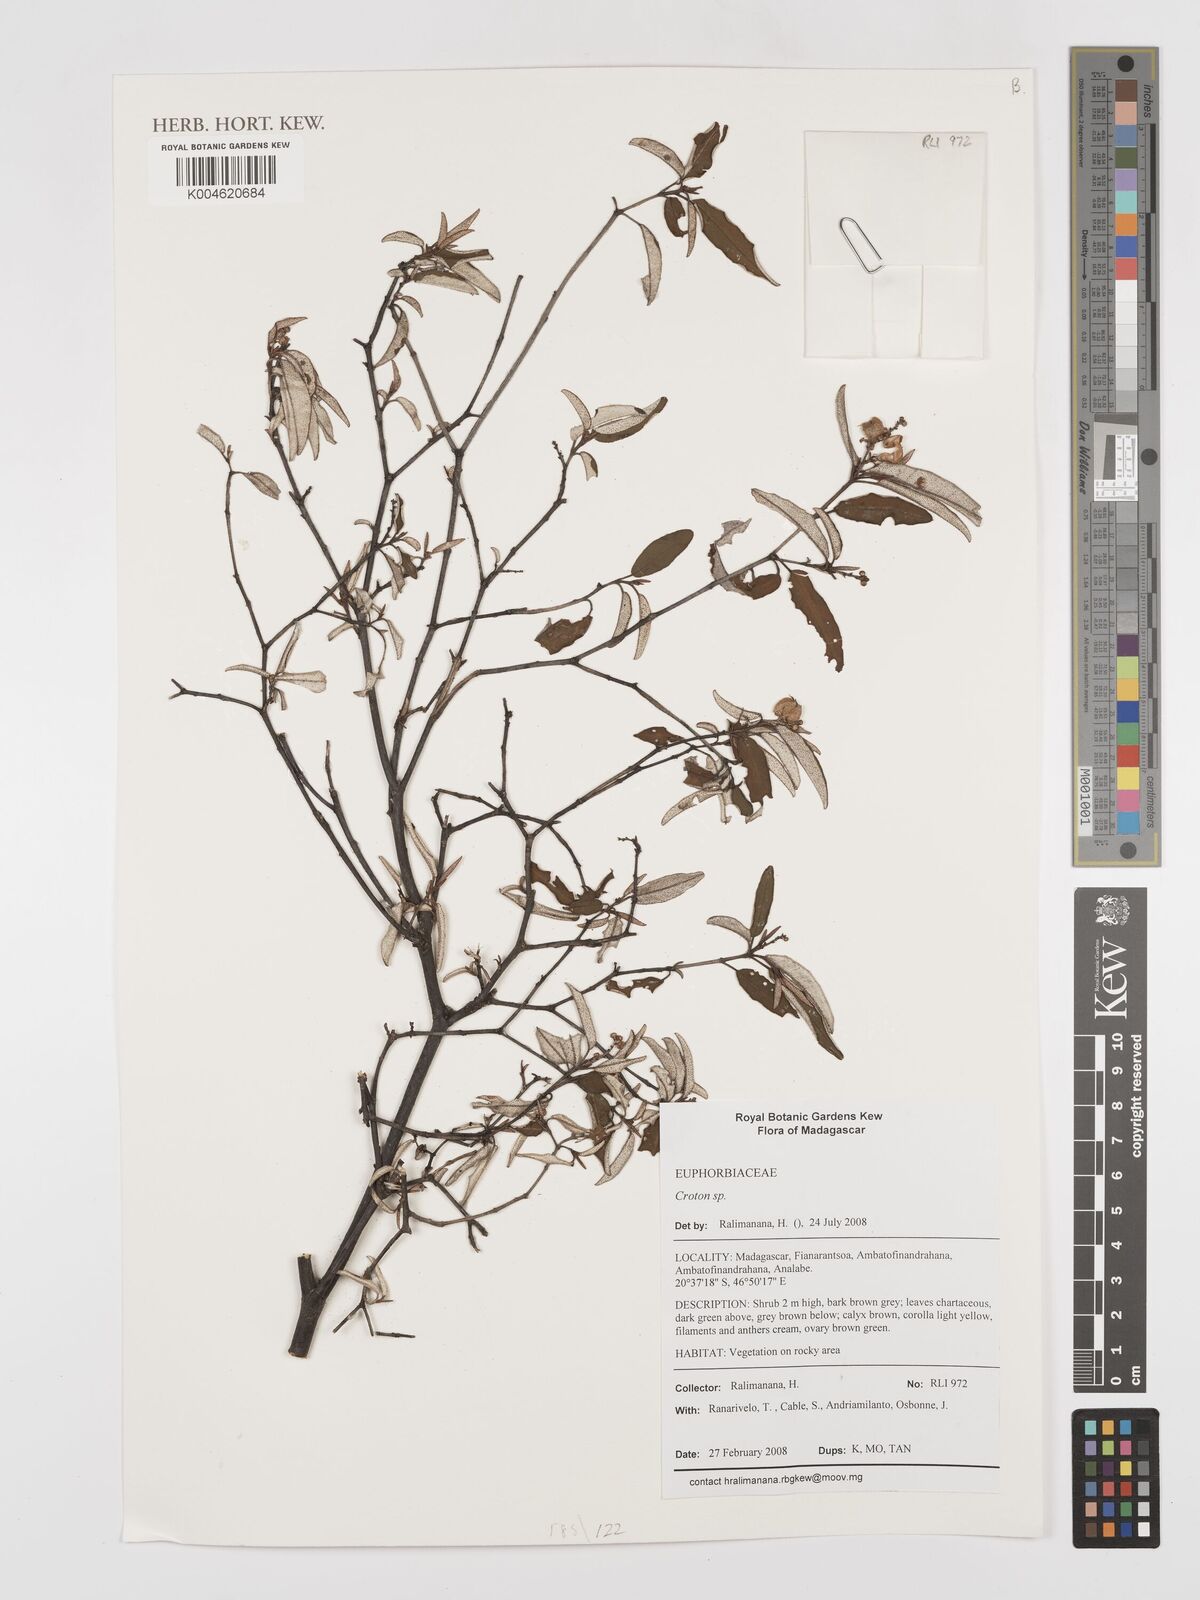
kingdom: Plantae
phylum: Tracheophyta
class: Magnoliopsida
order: Malpighiales
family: Euphorbiaceae
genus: Croton
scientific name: Croton
